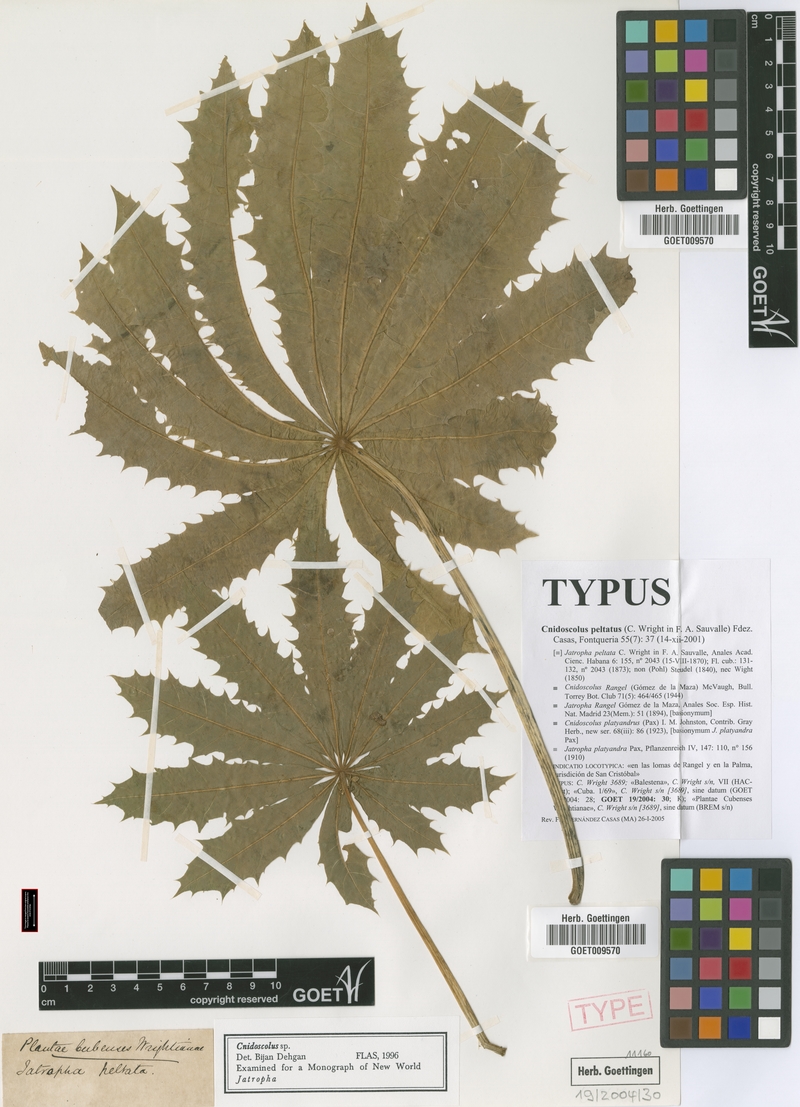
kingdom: Plantae
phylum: Tracheophyta
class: Magnoliopsida
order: Malpighiales
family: Euphorbiaceae
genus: Cnidoscolus
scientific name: Cnidoscolus rangel
